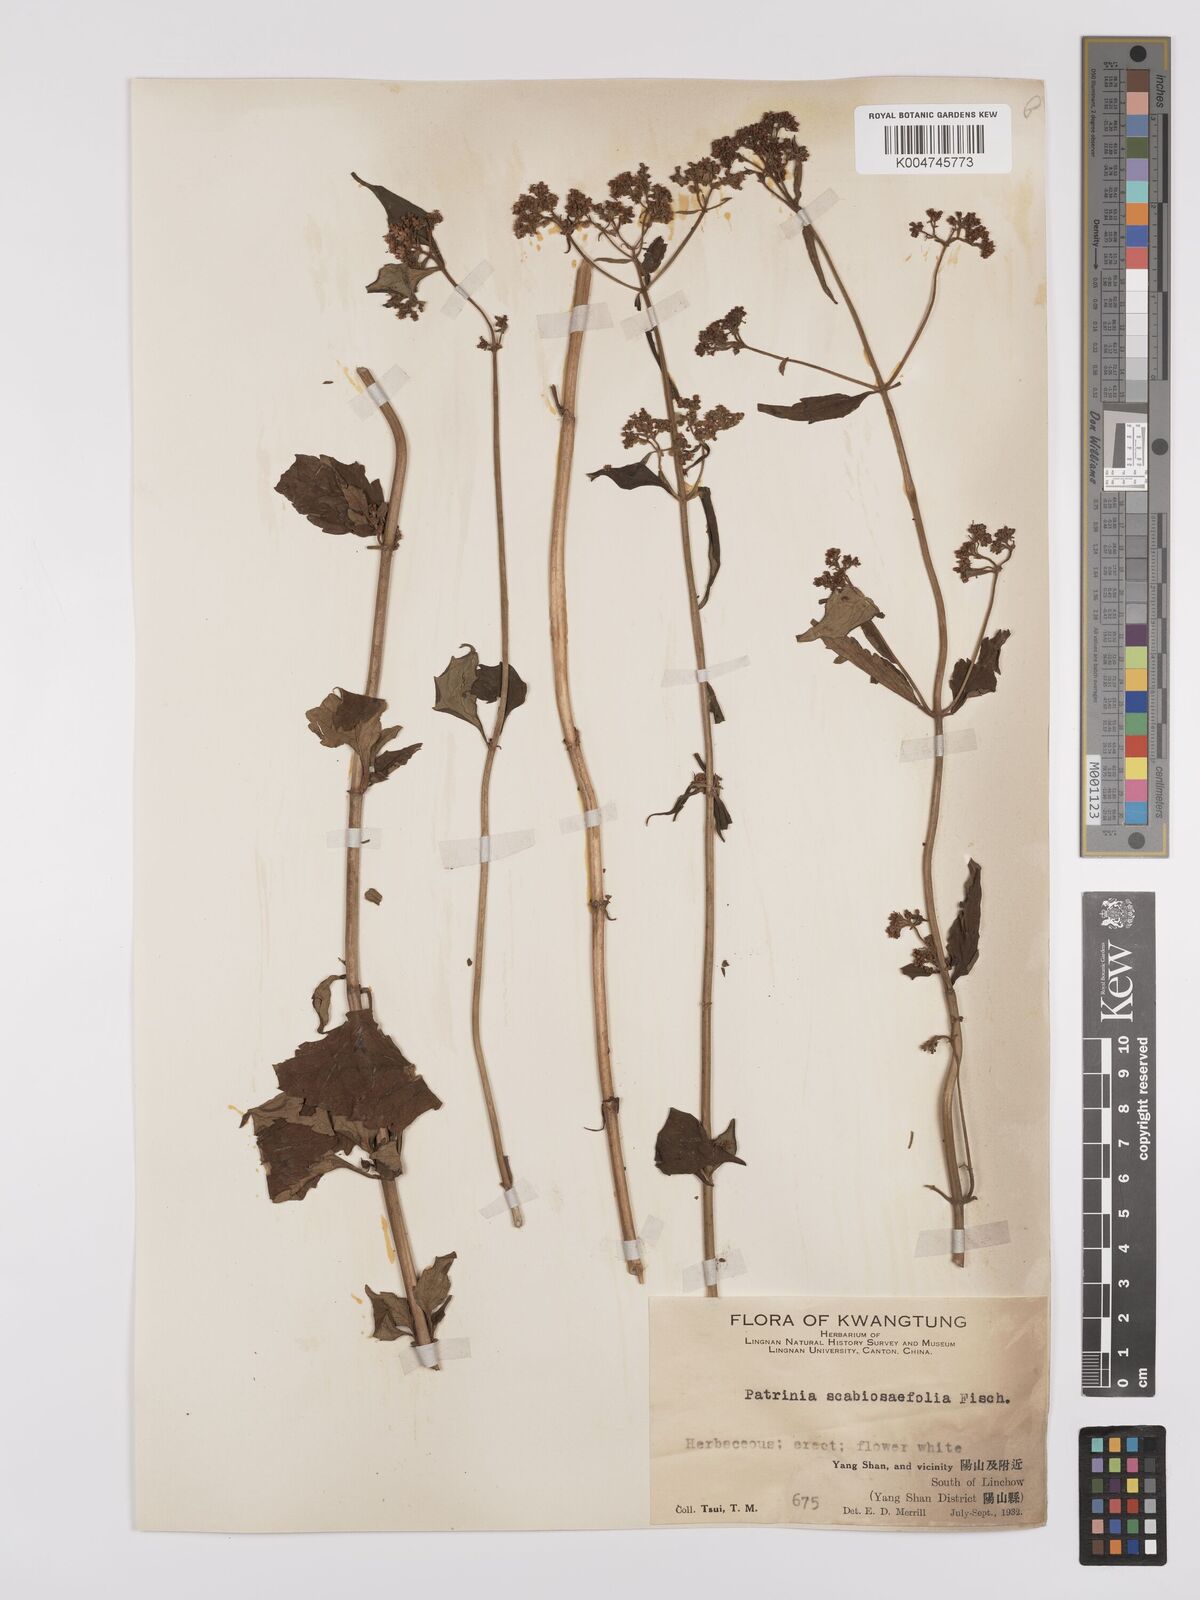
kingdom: Plantae
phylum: Tracheophyta
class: Magnoliopsida
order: Dipsacales
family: Caprifoliaceae
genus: Patrinia
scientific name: Patrinia
